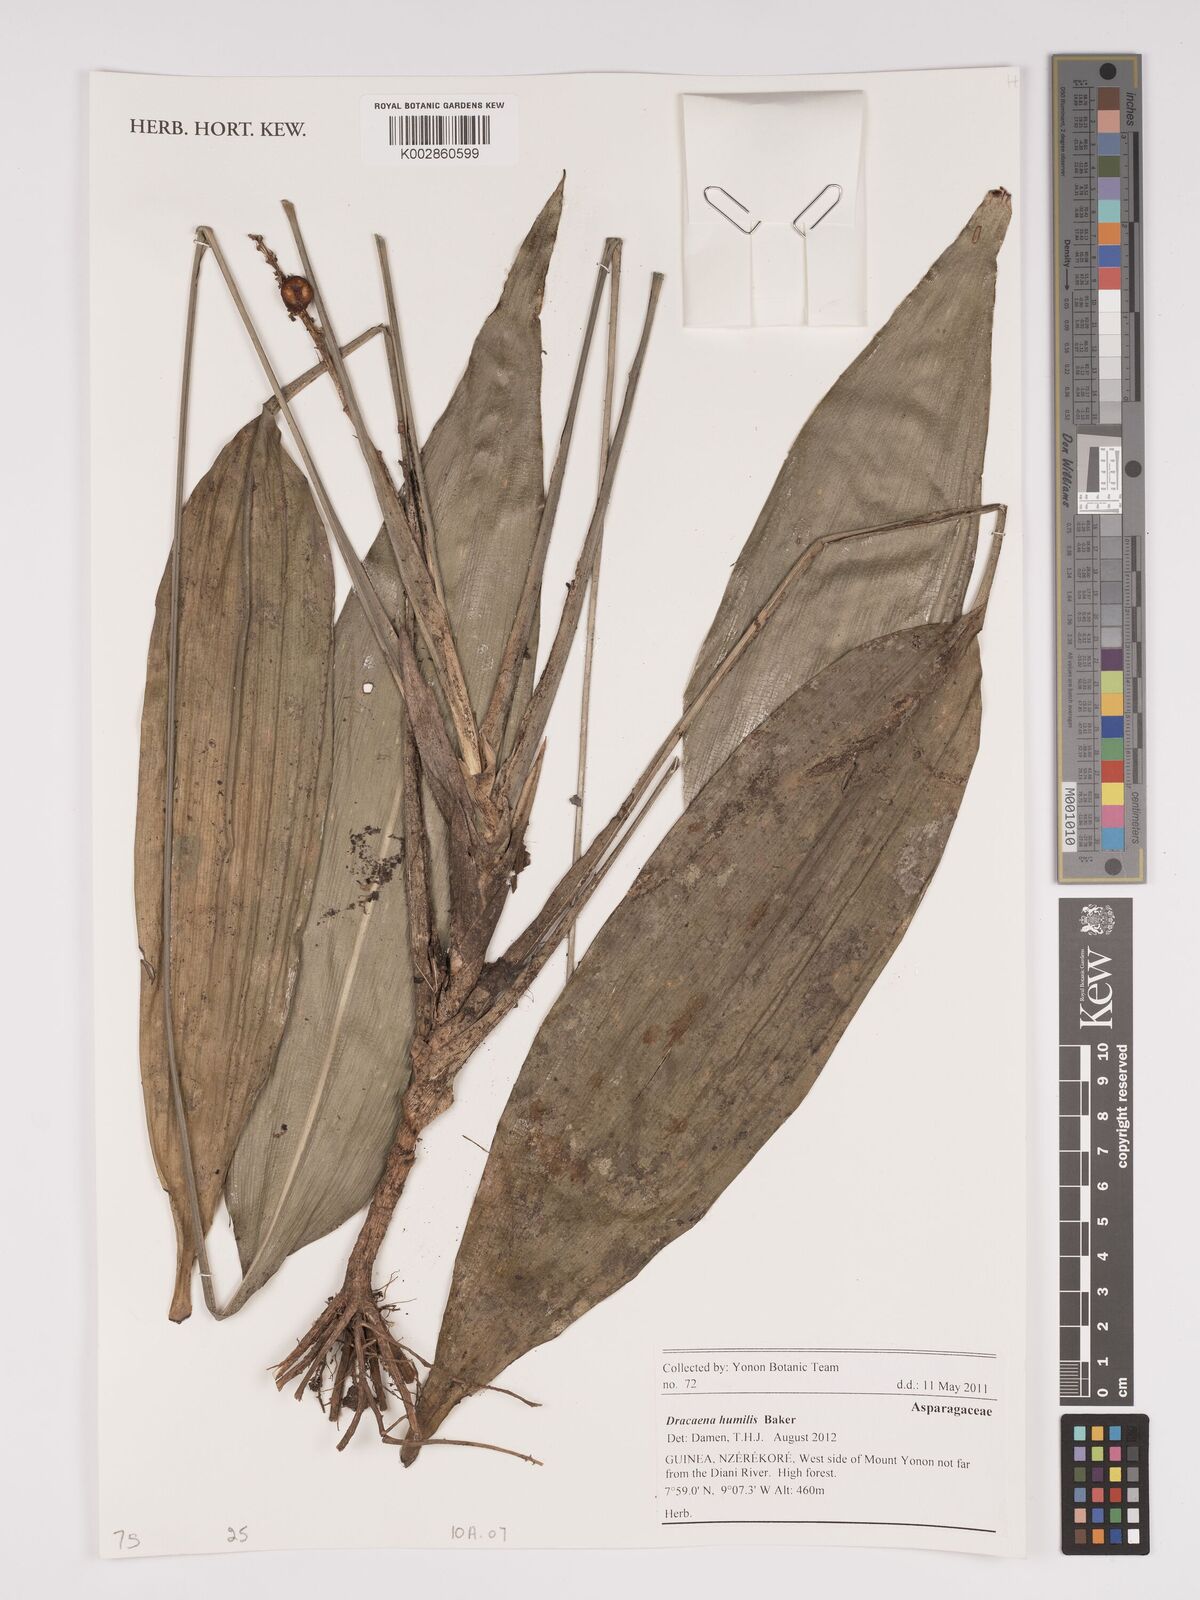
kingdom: Plantae
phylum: Tracheophyta
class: Liliopsida
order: Asparagales
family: Asparagaceae
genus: Dracaena
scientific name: Dracaena aubryana
